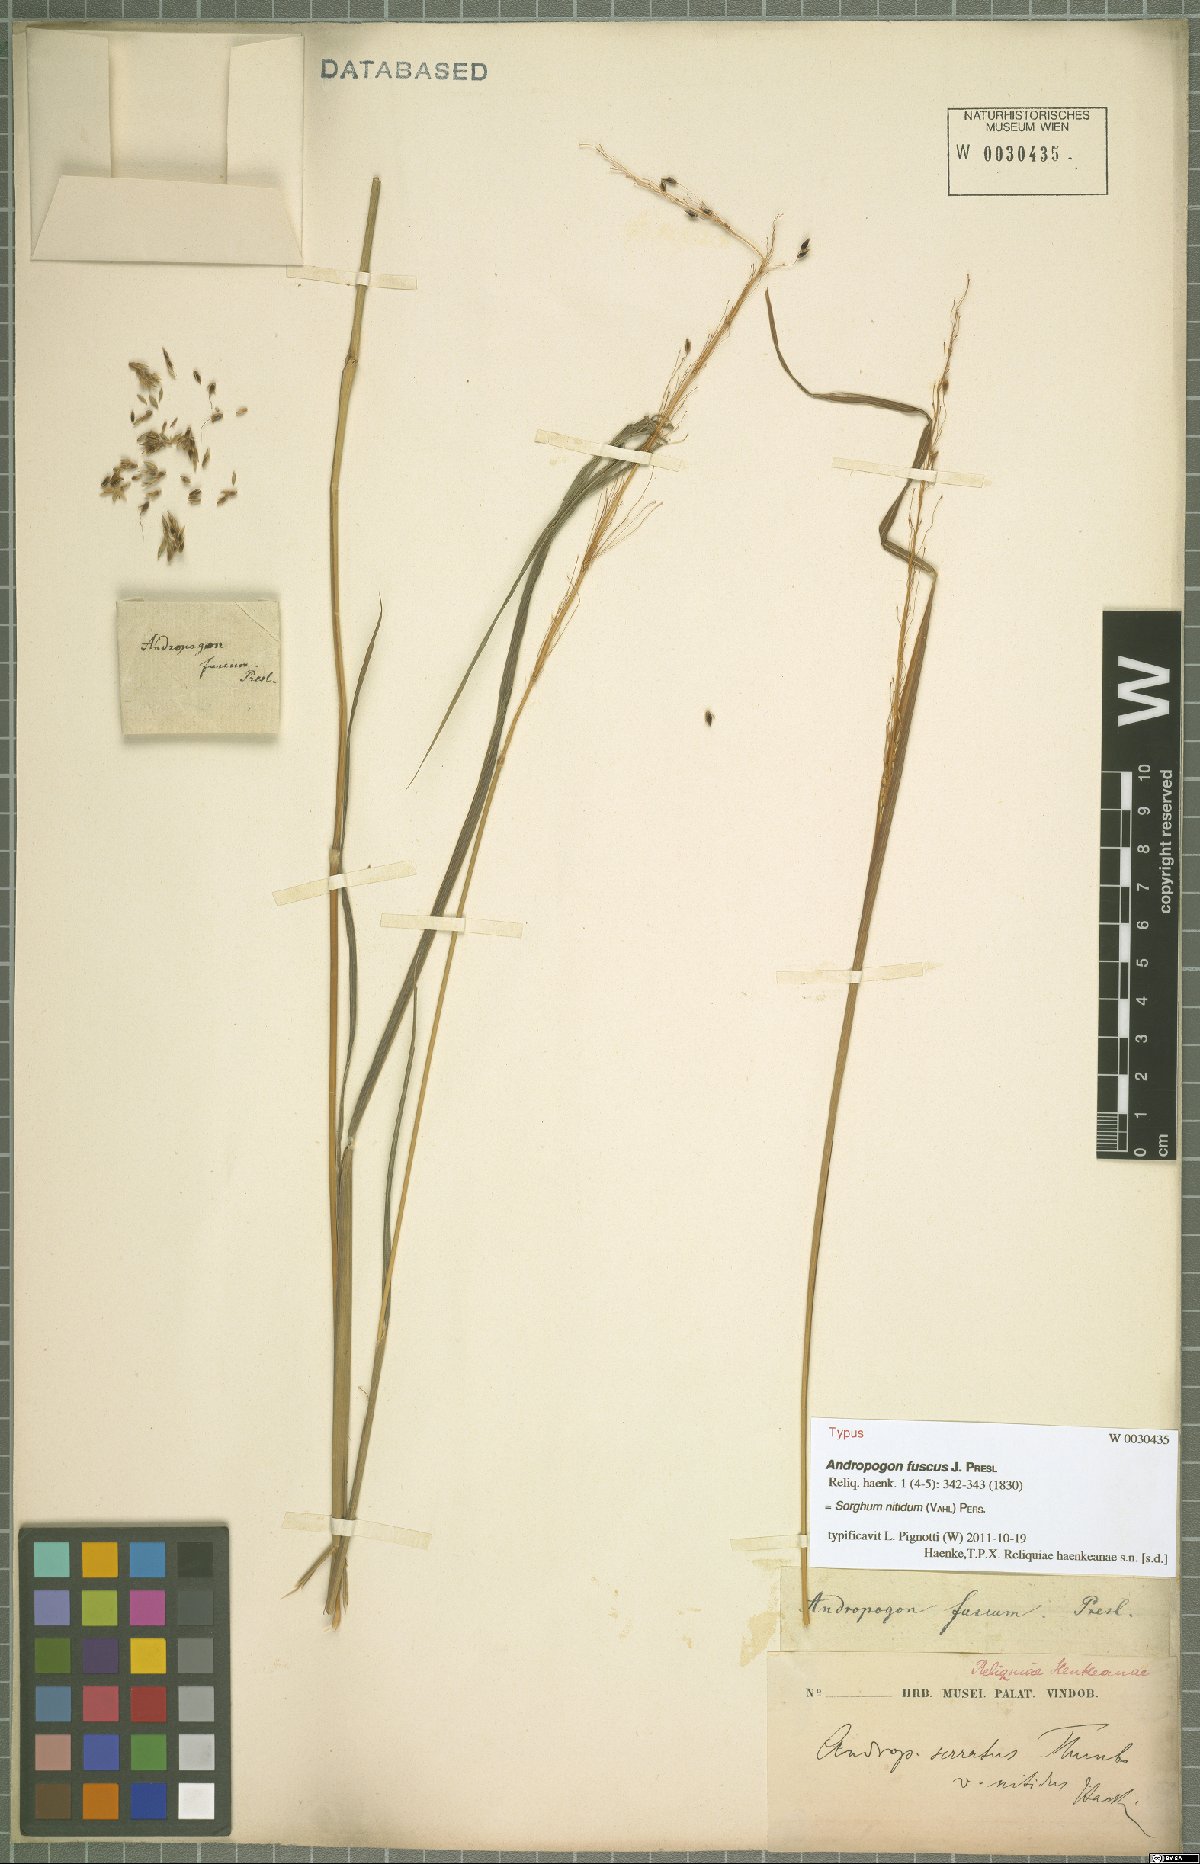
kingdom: Plantae
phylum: Tracheophyta
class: Liliopsida
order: Poales
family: Poaceae
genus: Sorghum
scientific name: Sorghum nitidum
